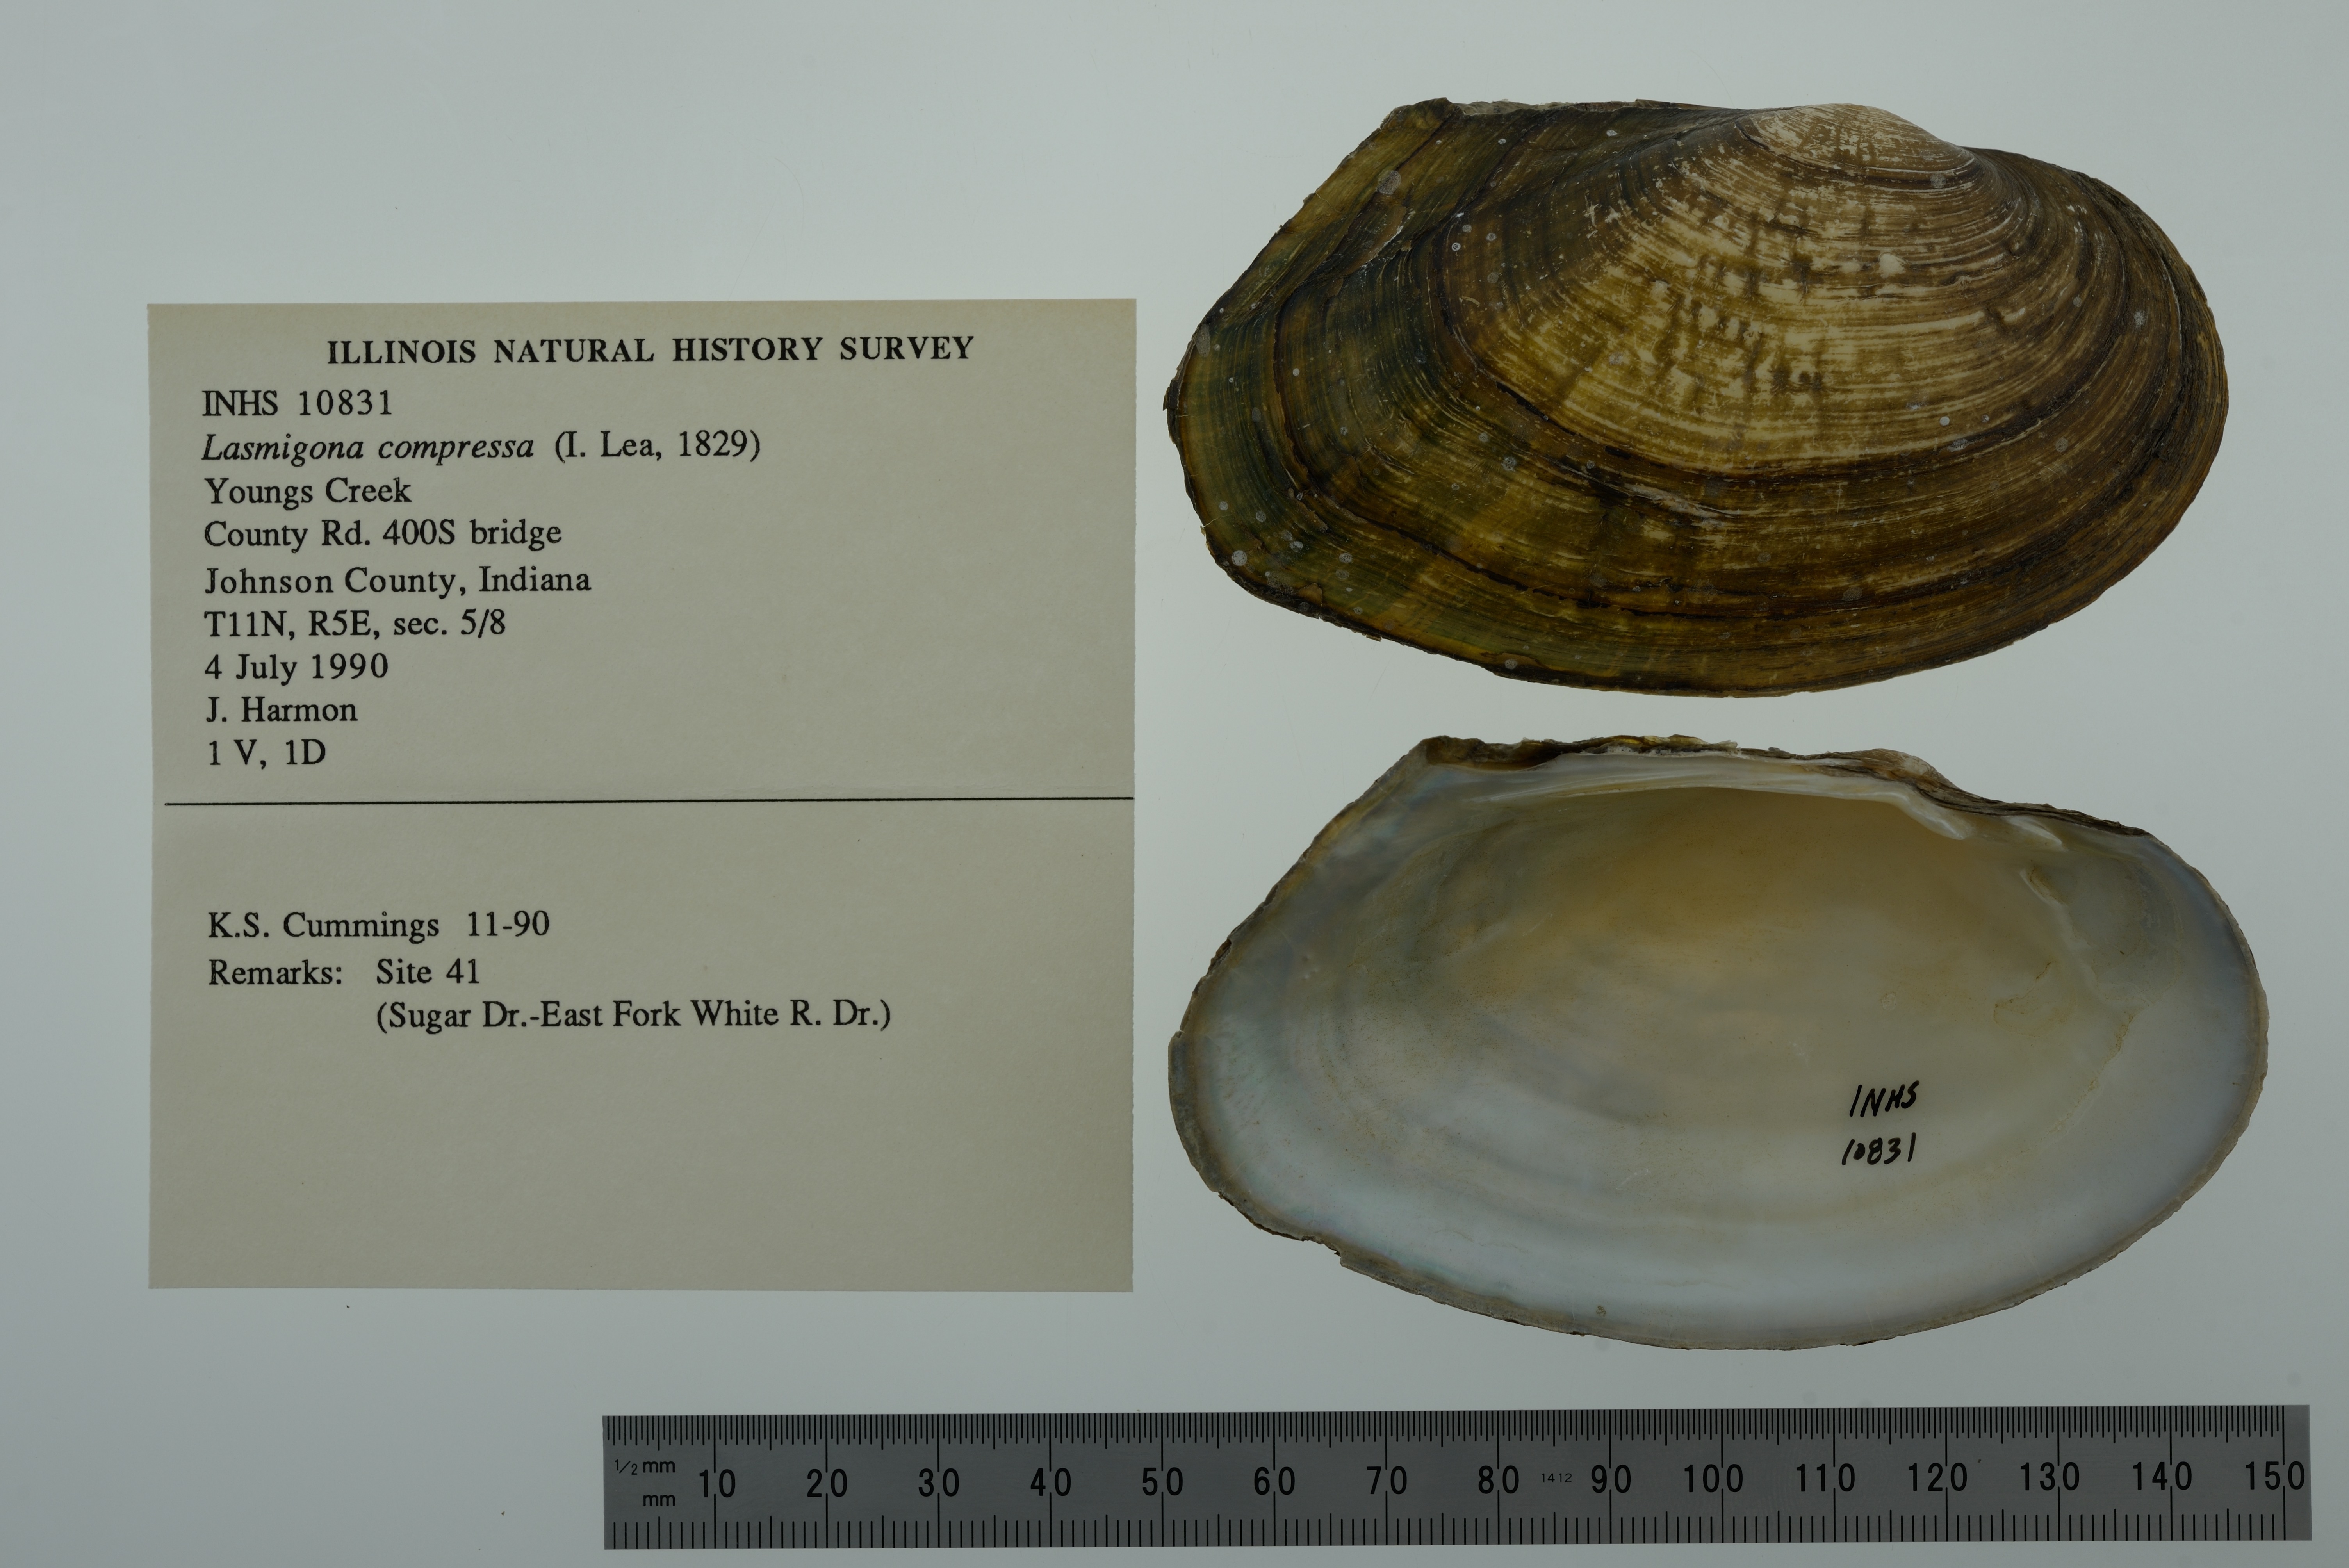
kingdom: Animalia
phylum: Mollusca
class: Bivalvia
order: Unionida
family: Unionidae
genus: Lasmigona
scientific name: Lasmigona compressa
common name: Creek heelsplitter
